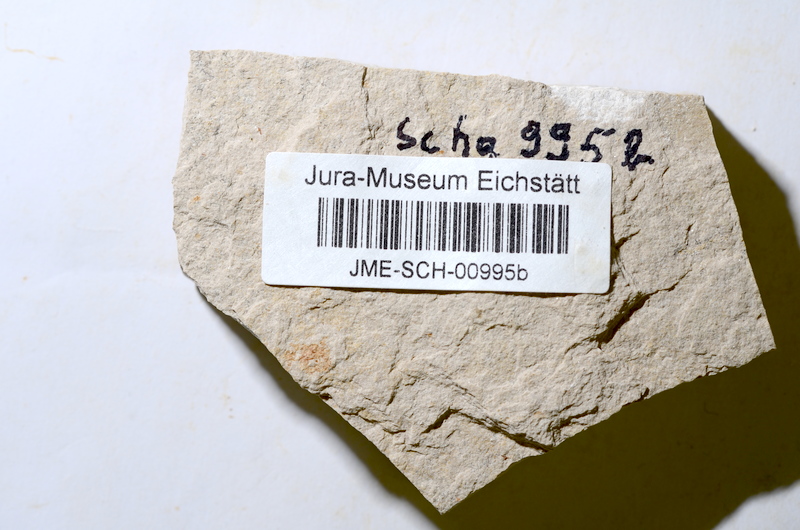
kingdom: Animalia
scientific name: Animalia
